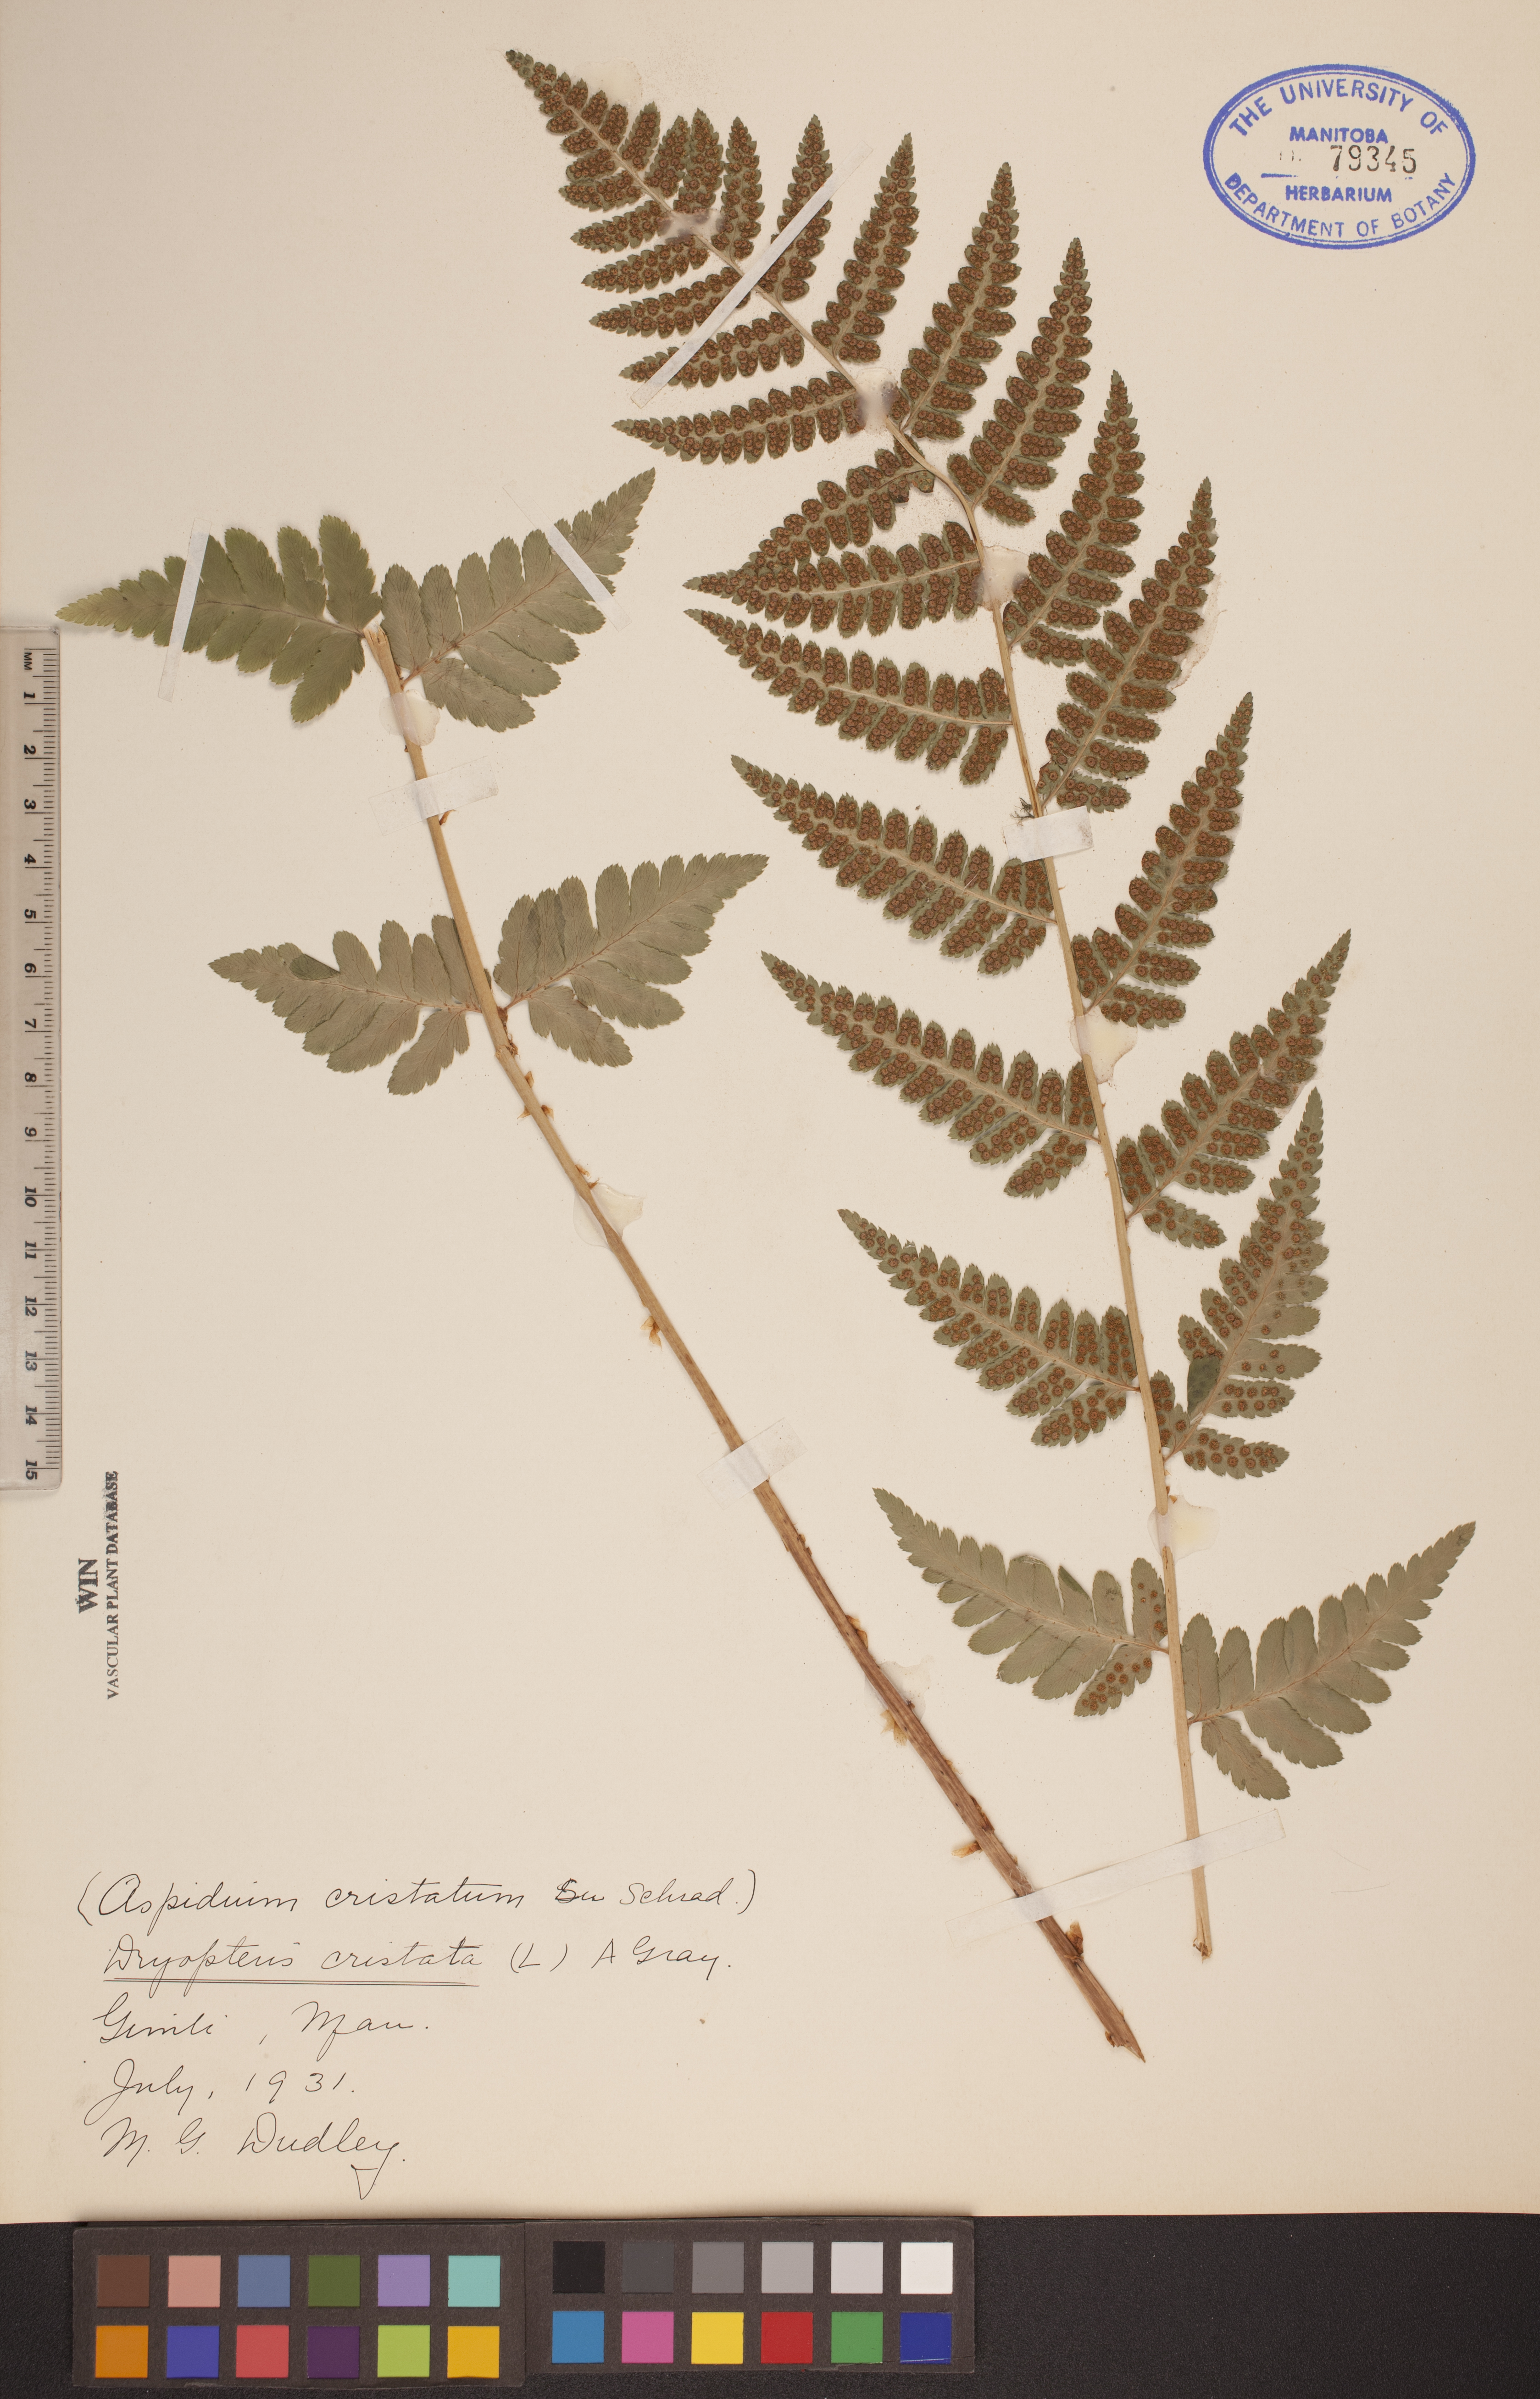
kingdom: Plantae
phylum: Tracheophyta
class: Polypodiopsida
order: Polypodiales
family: Dryopteridaceae
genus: Dryopteris
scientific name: Dryopteris cristata
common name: Crested wood fern
